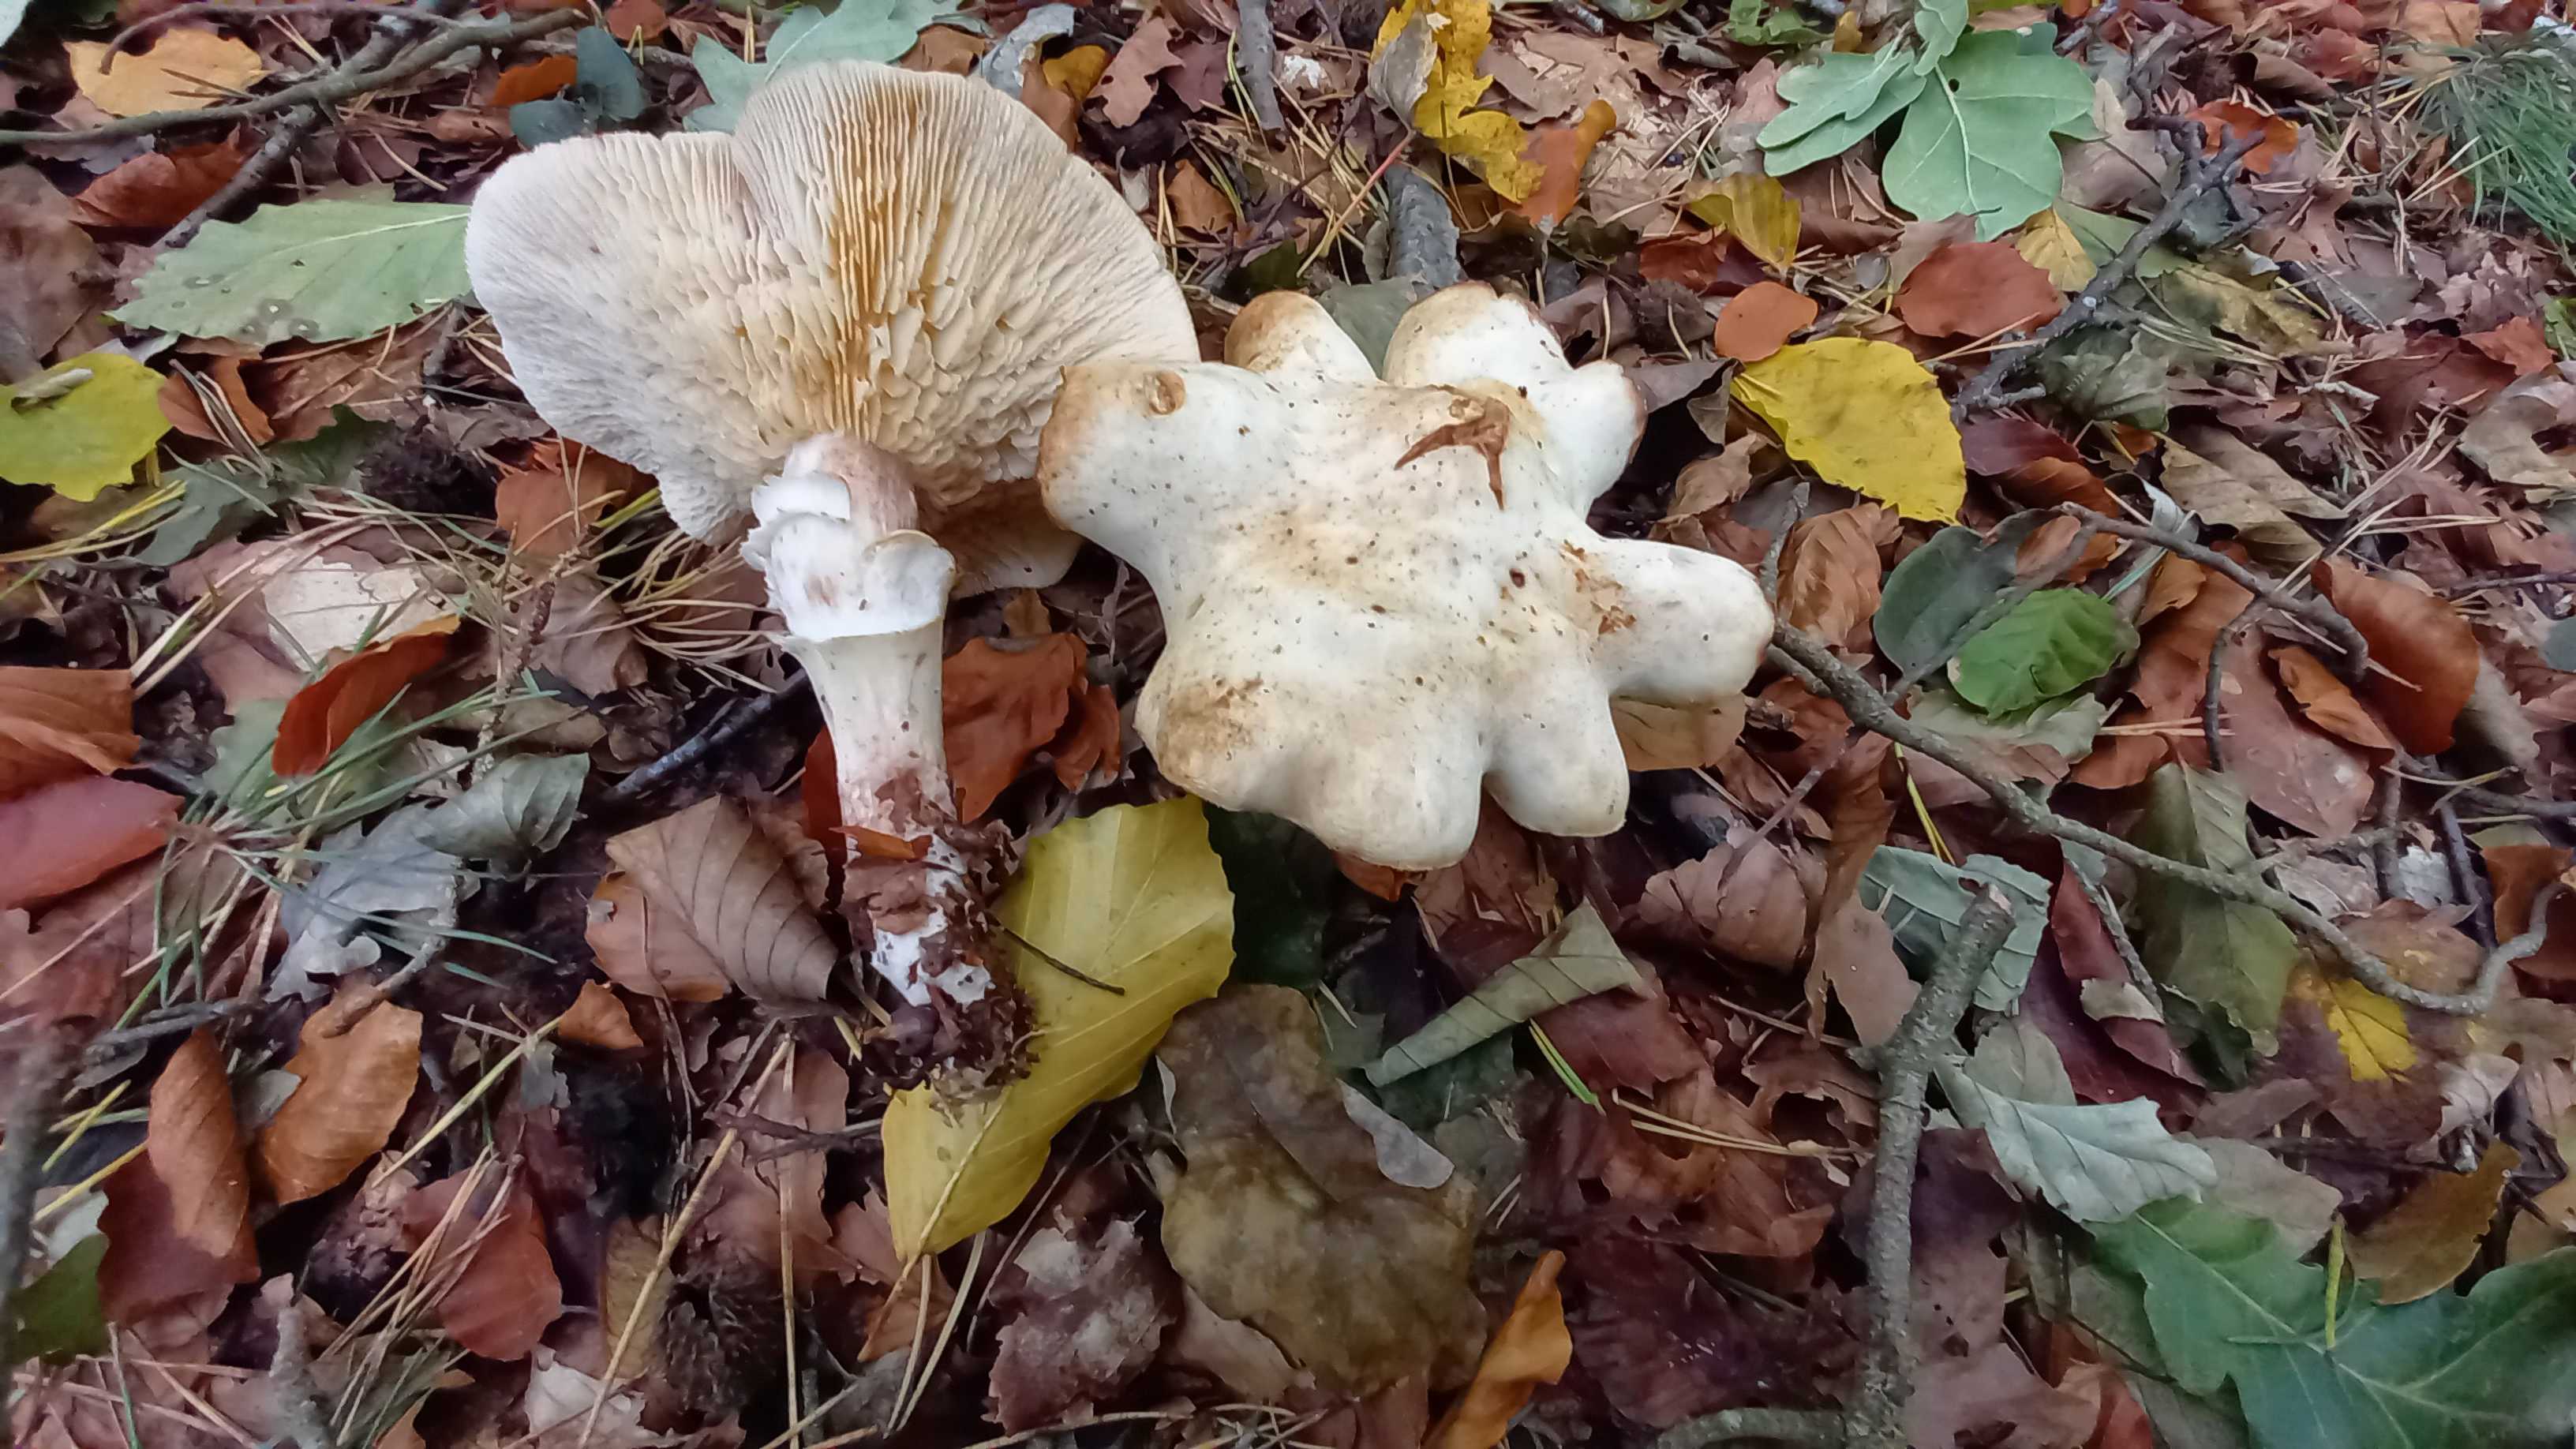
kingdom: Fungi
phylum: Basidiomycota
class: Agaricomycetes
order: Agaricales
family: Omphalotaceae
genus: Rhodocollybia
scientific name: Rhodocollybia maculata
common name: plettet fladhat
